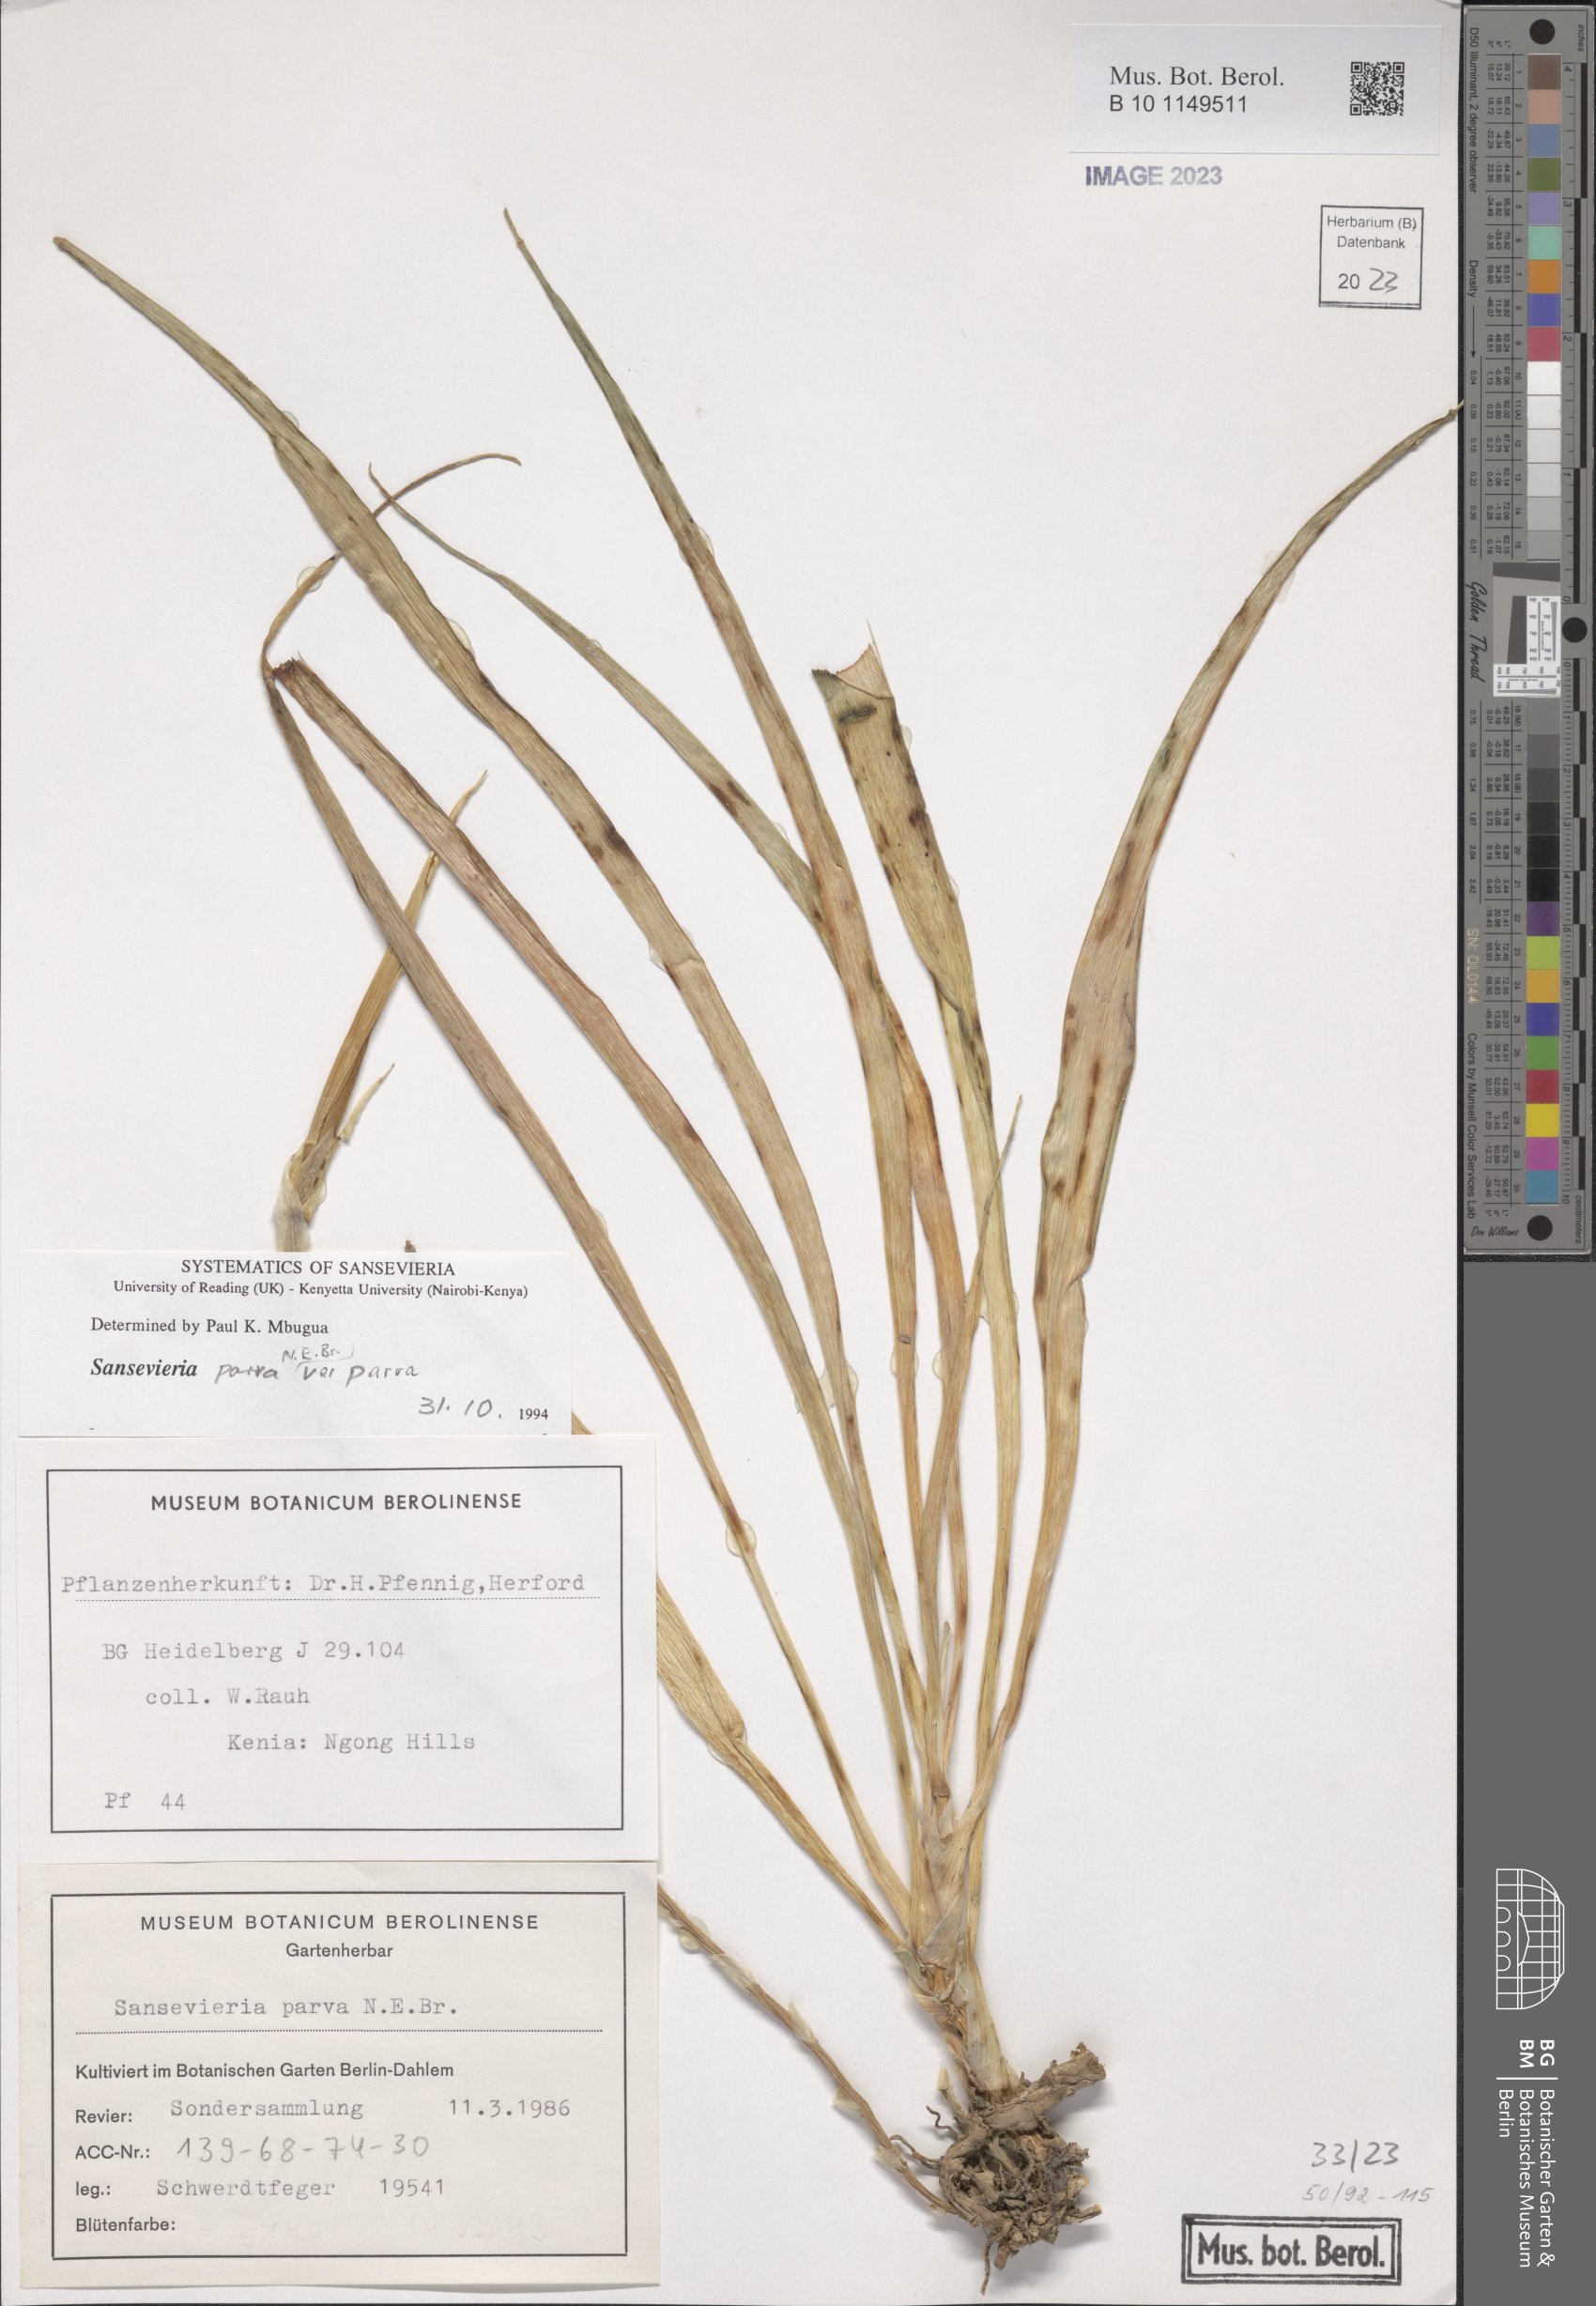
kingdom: Plantae
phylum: Tracheophyta
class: Liliopsida
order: Asparagales
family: Asparagaceae
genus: Dracaena
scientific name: Dracaena parva
